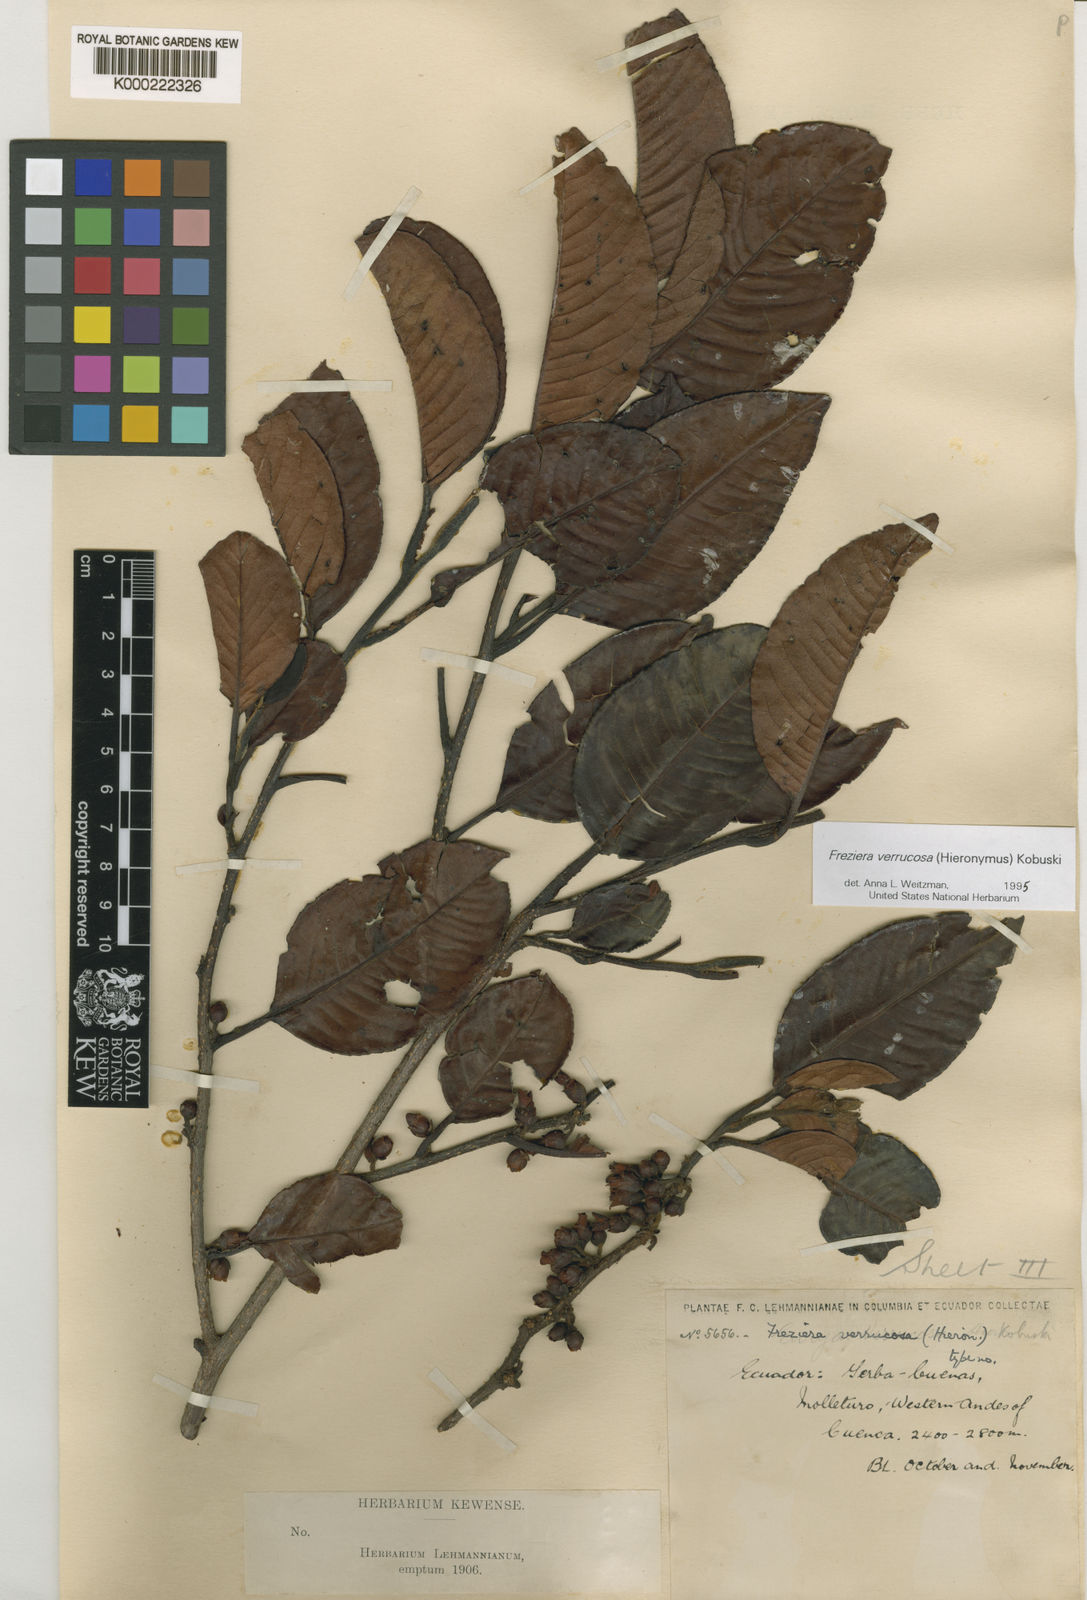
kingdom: Plantae
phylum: Tracheophyta
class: Magnoliopsida
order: Ericales
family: Pentaphylacaceae
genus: Freziera
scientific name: Freziera verrucosa
